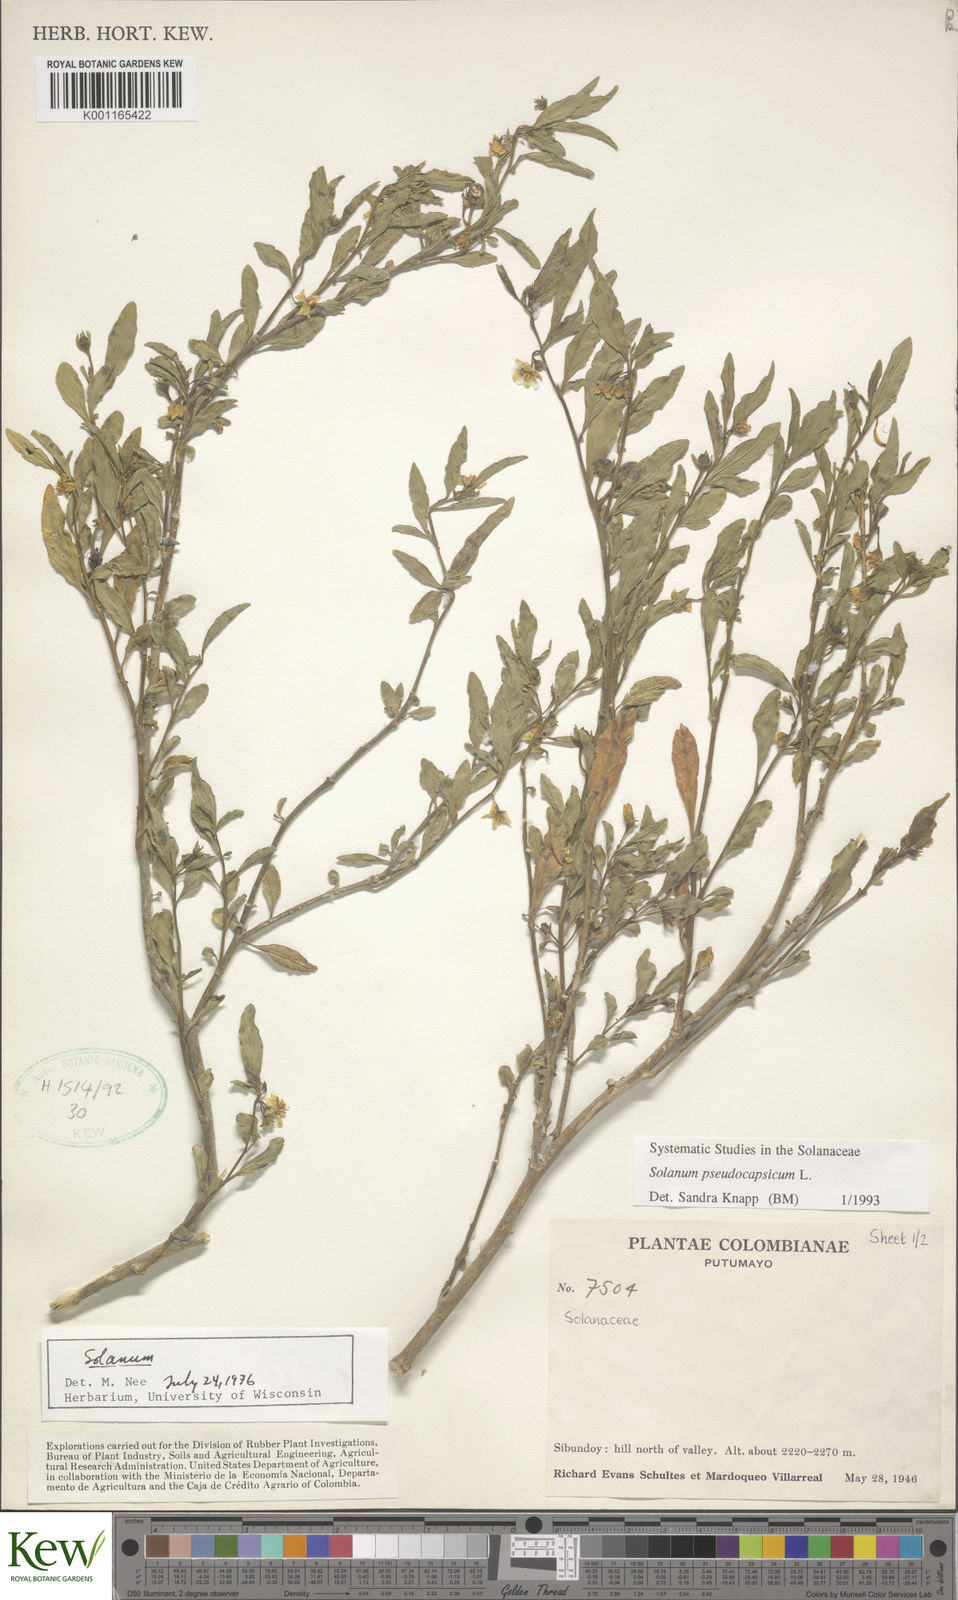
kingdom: Plantae
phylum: Tracheophyta
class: Magnoliopsida
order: Solanales
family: Solanaceae
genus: Solanum
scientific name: Solanum pseudocapsicum
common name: Jerusalem cherry
